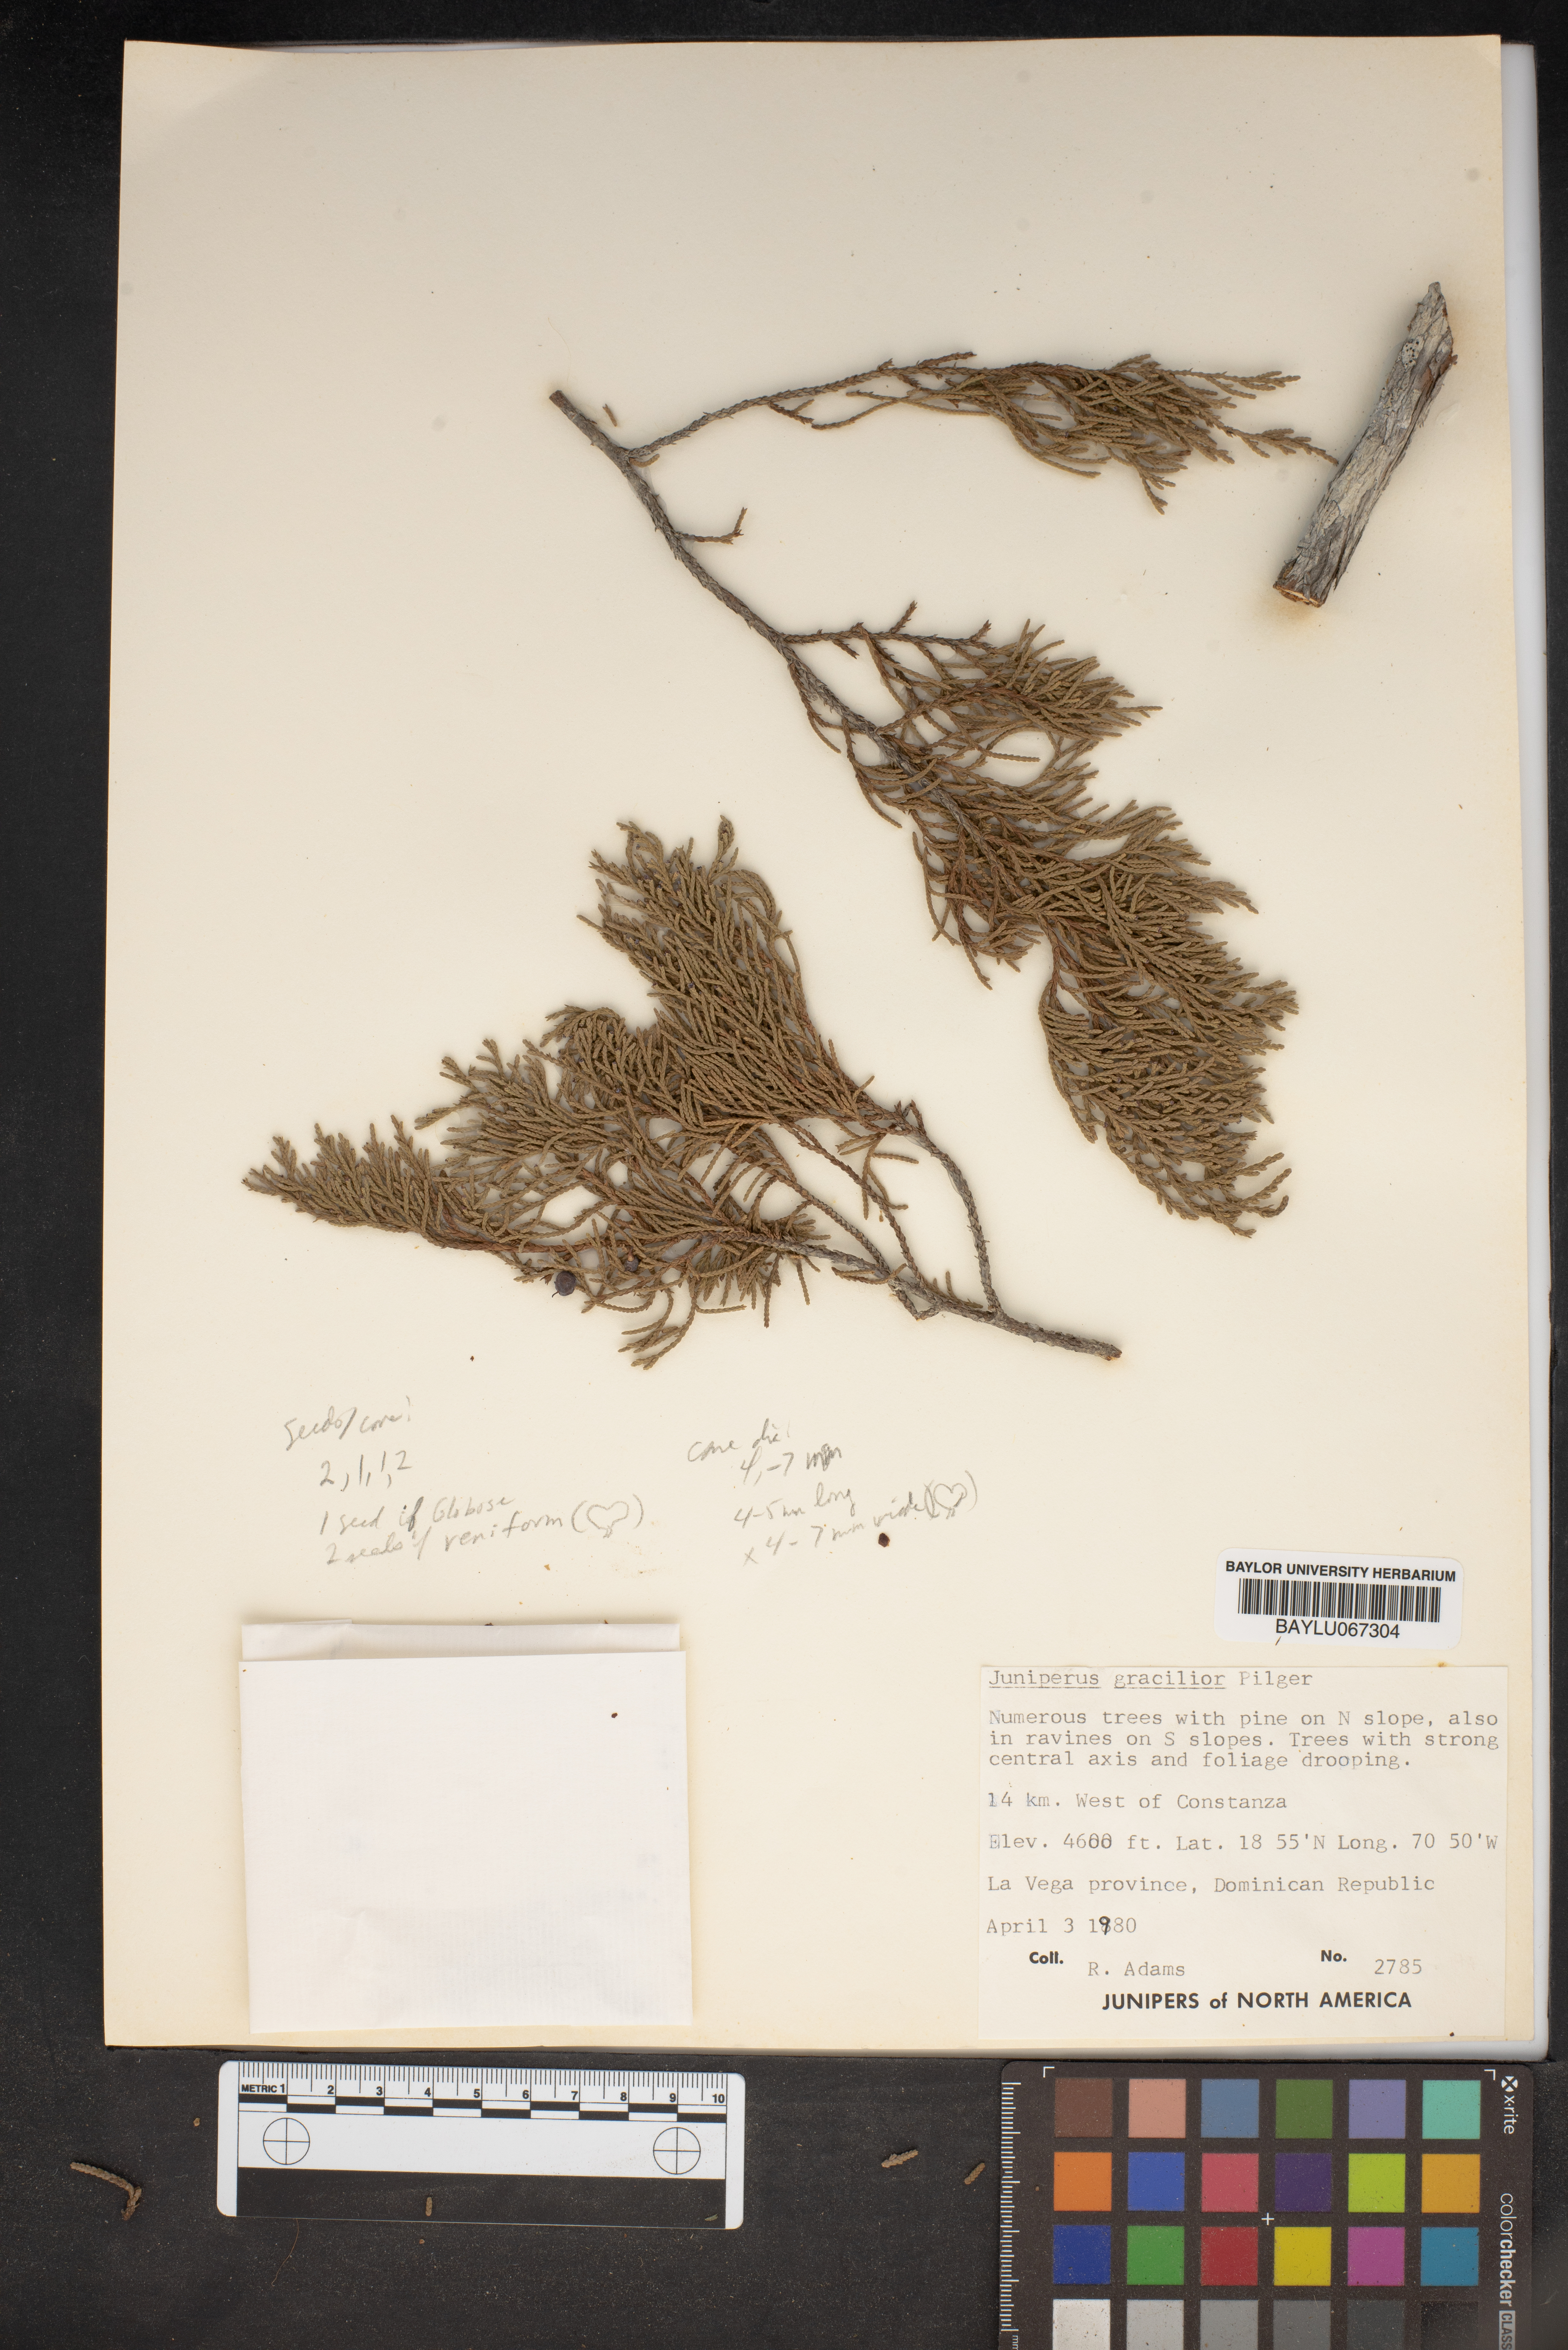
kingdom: Plantae
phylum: Tracheophyta
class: Pinopsida
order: Pinales
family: Cupressaceae
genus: Juniperus
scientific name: Juniperus gracilior
